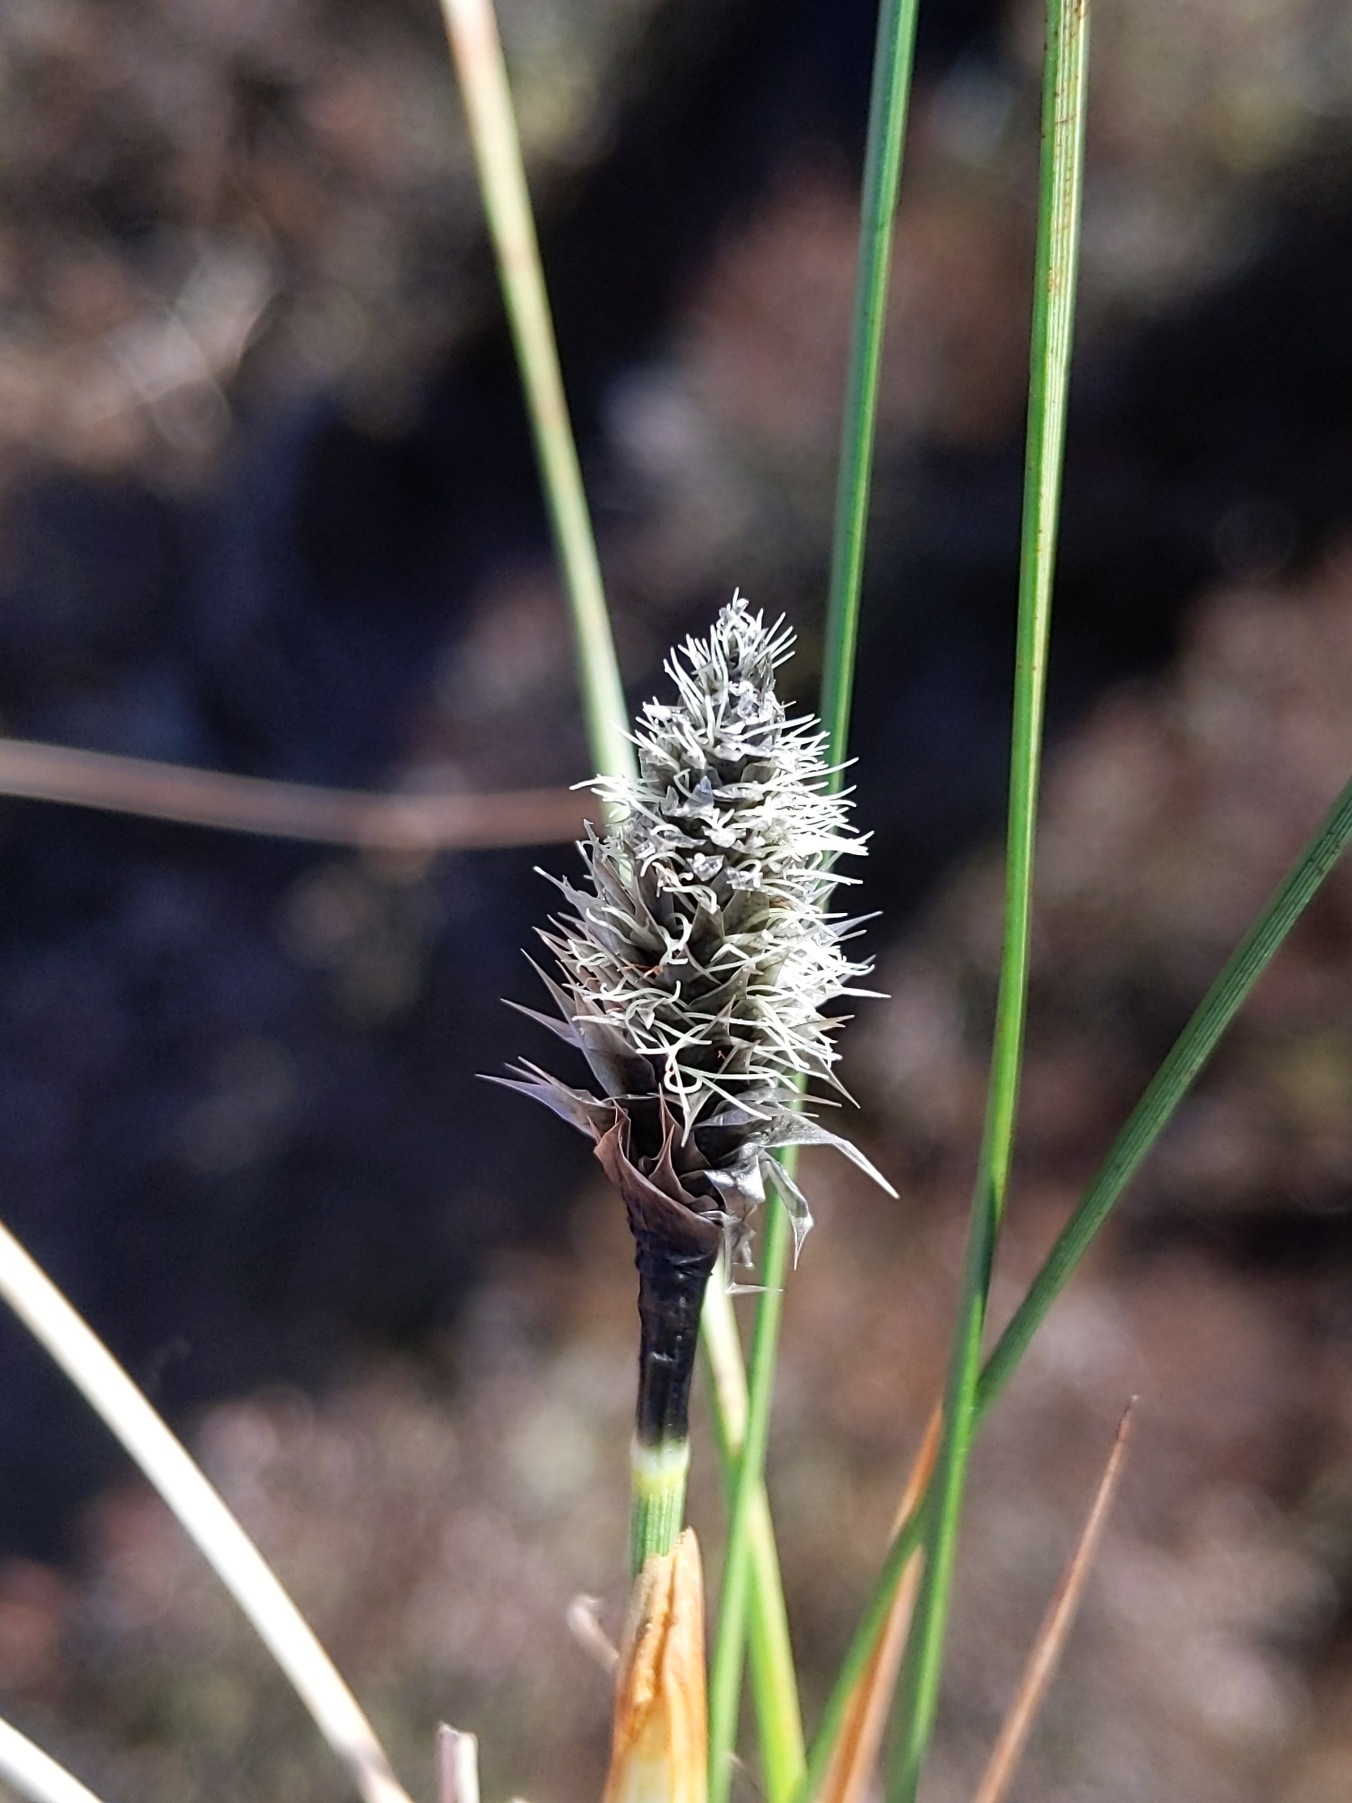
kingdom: Plantae
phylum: Tracheophyta
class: Liliopsida
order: Poales
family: Cyperaceae
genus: Eriophorum
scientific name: Eriophorum vaginatum
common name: Tue-kæruld
